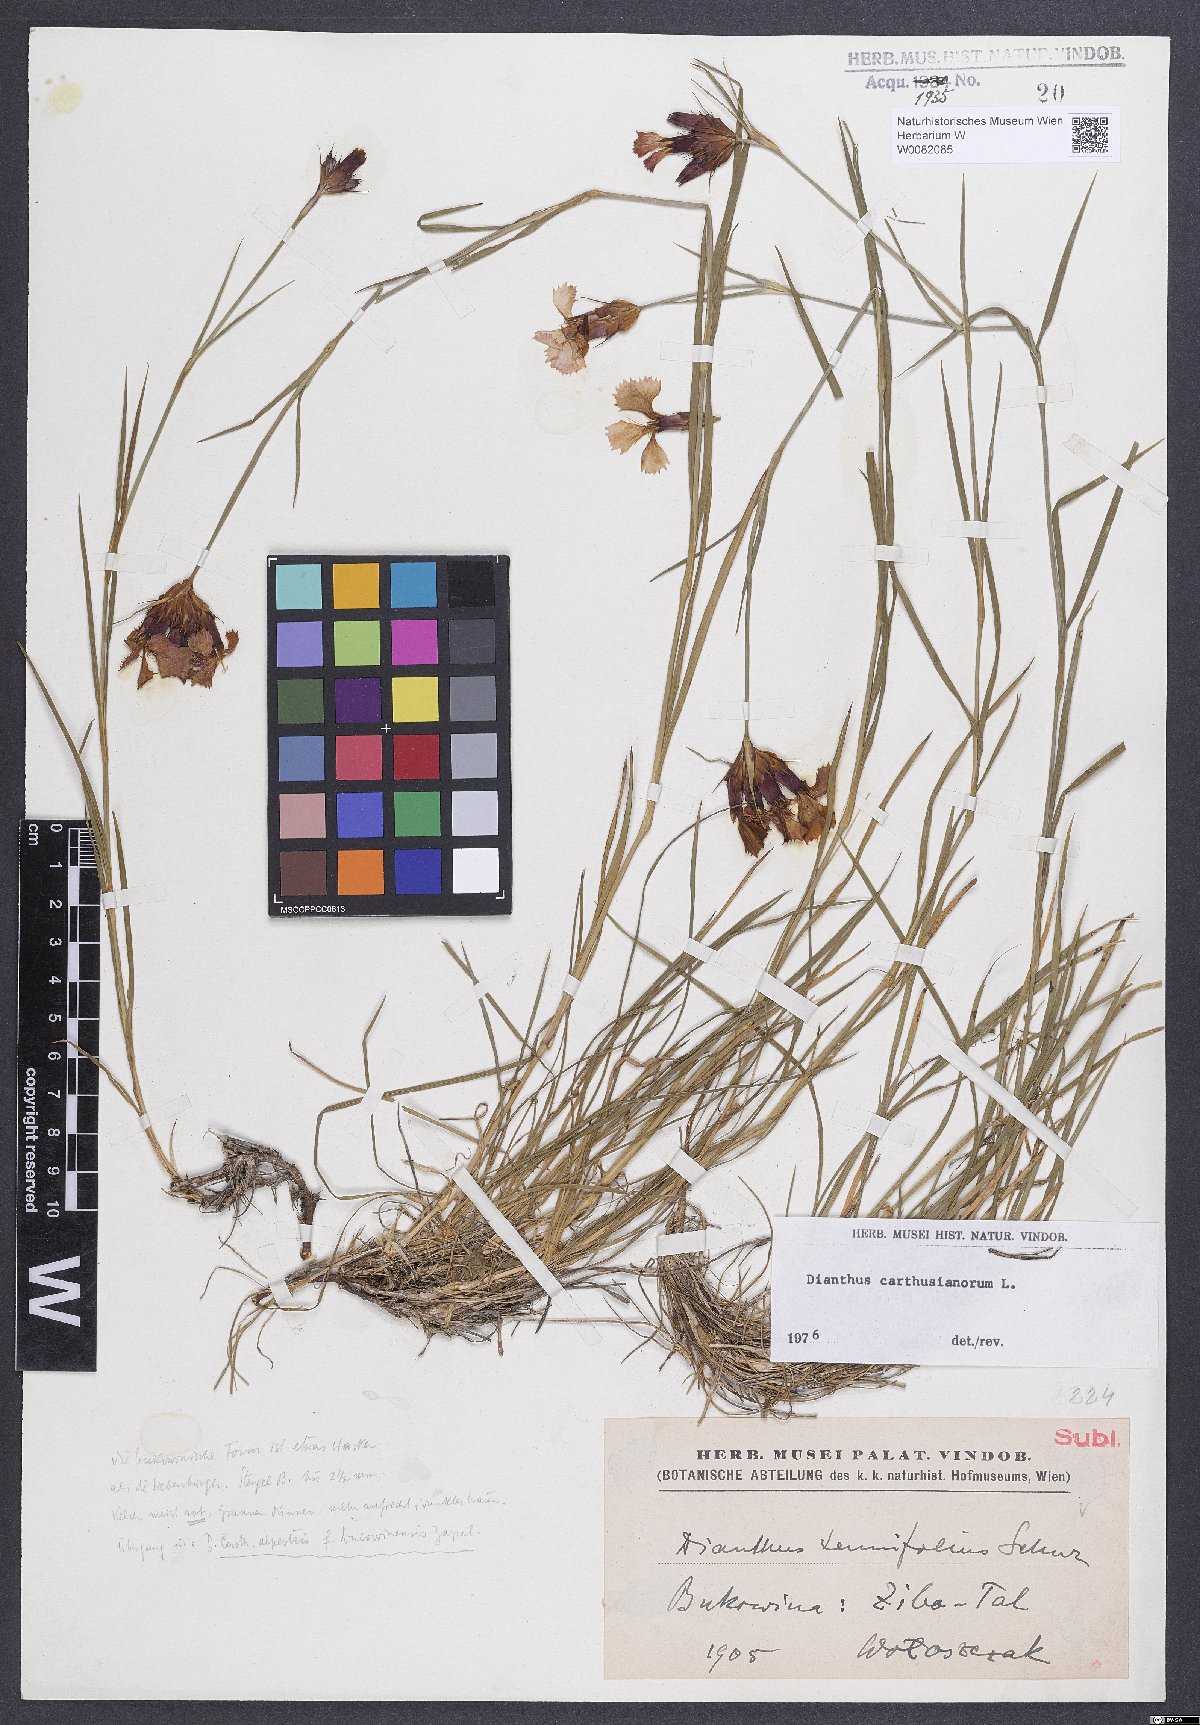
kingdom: Plantae
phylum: Tracheophyta
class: Magnoliopsida
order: Caryophyllales
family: Caryophyllaceae
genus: Dianthus
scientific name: Dianthus carthusianorum
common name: Carthusian pink
